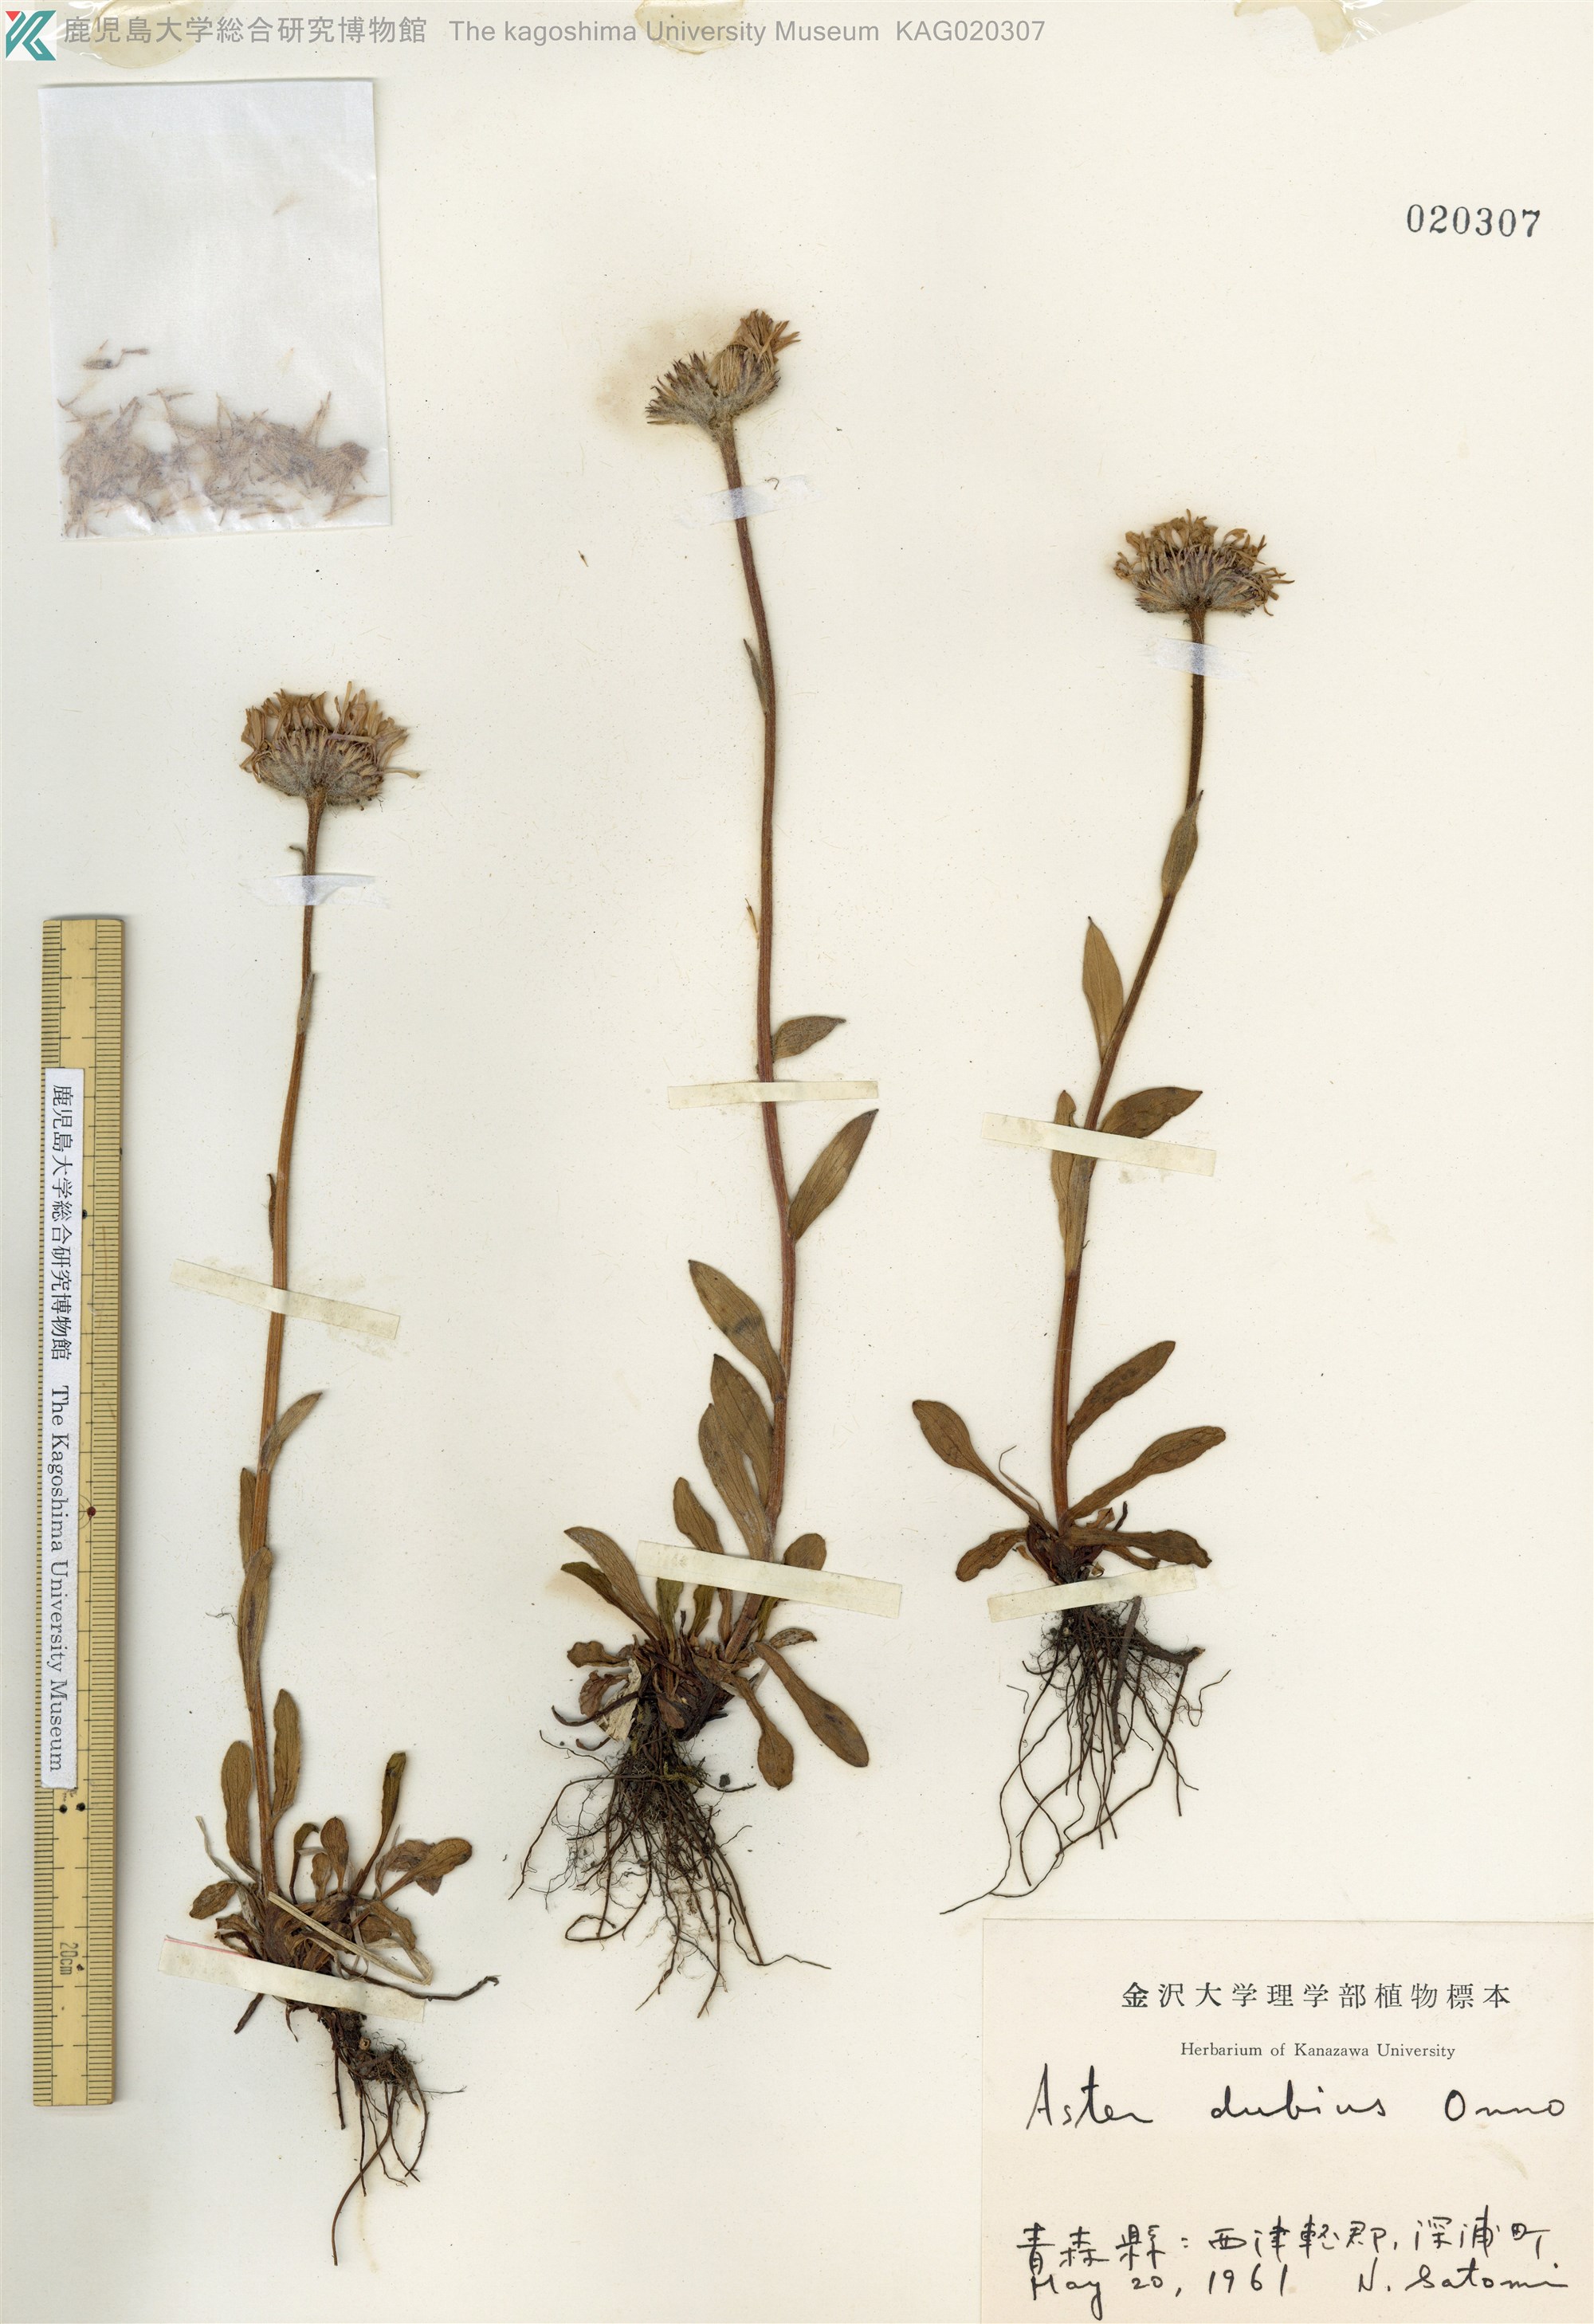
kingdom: Plantae
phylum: Tracheophyta
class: Magnoliopsida
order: Asterales
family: Asteraceae
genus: Erigeron
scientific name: Erigeron thunbergii
